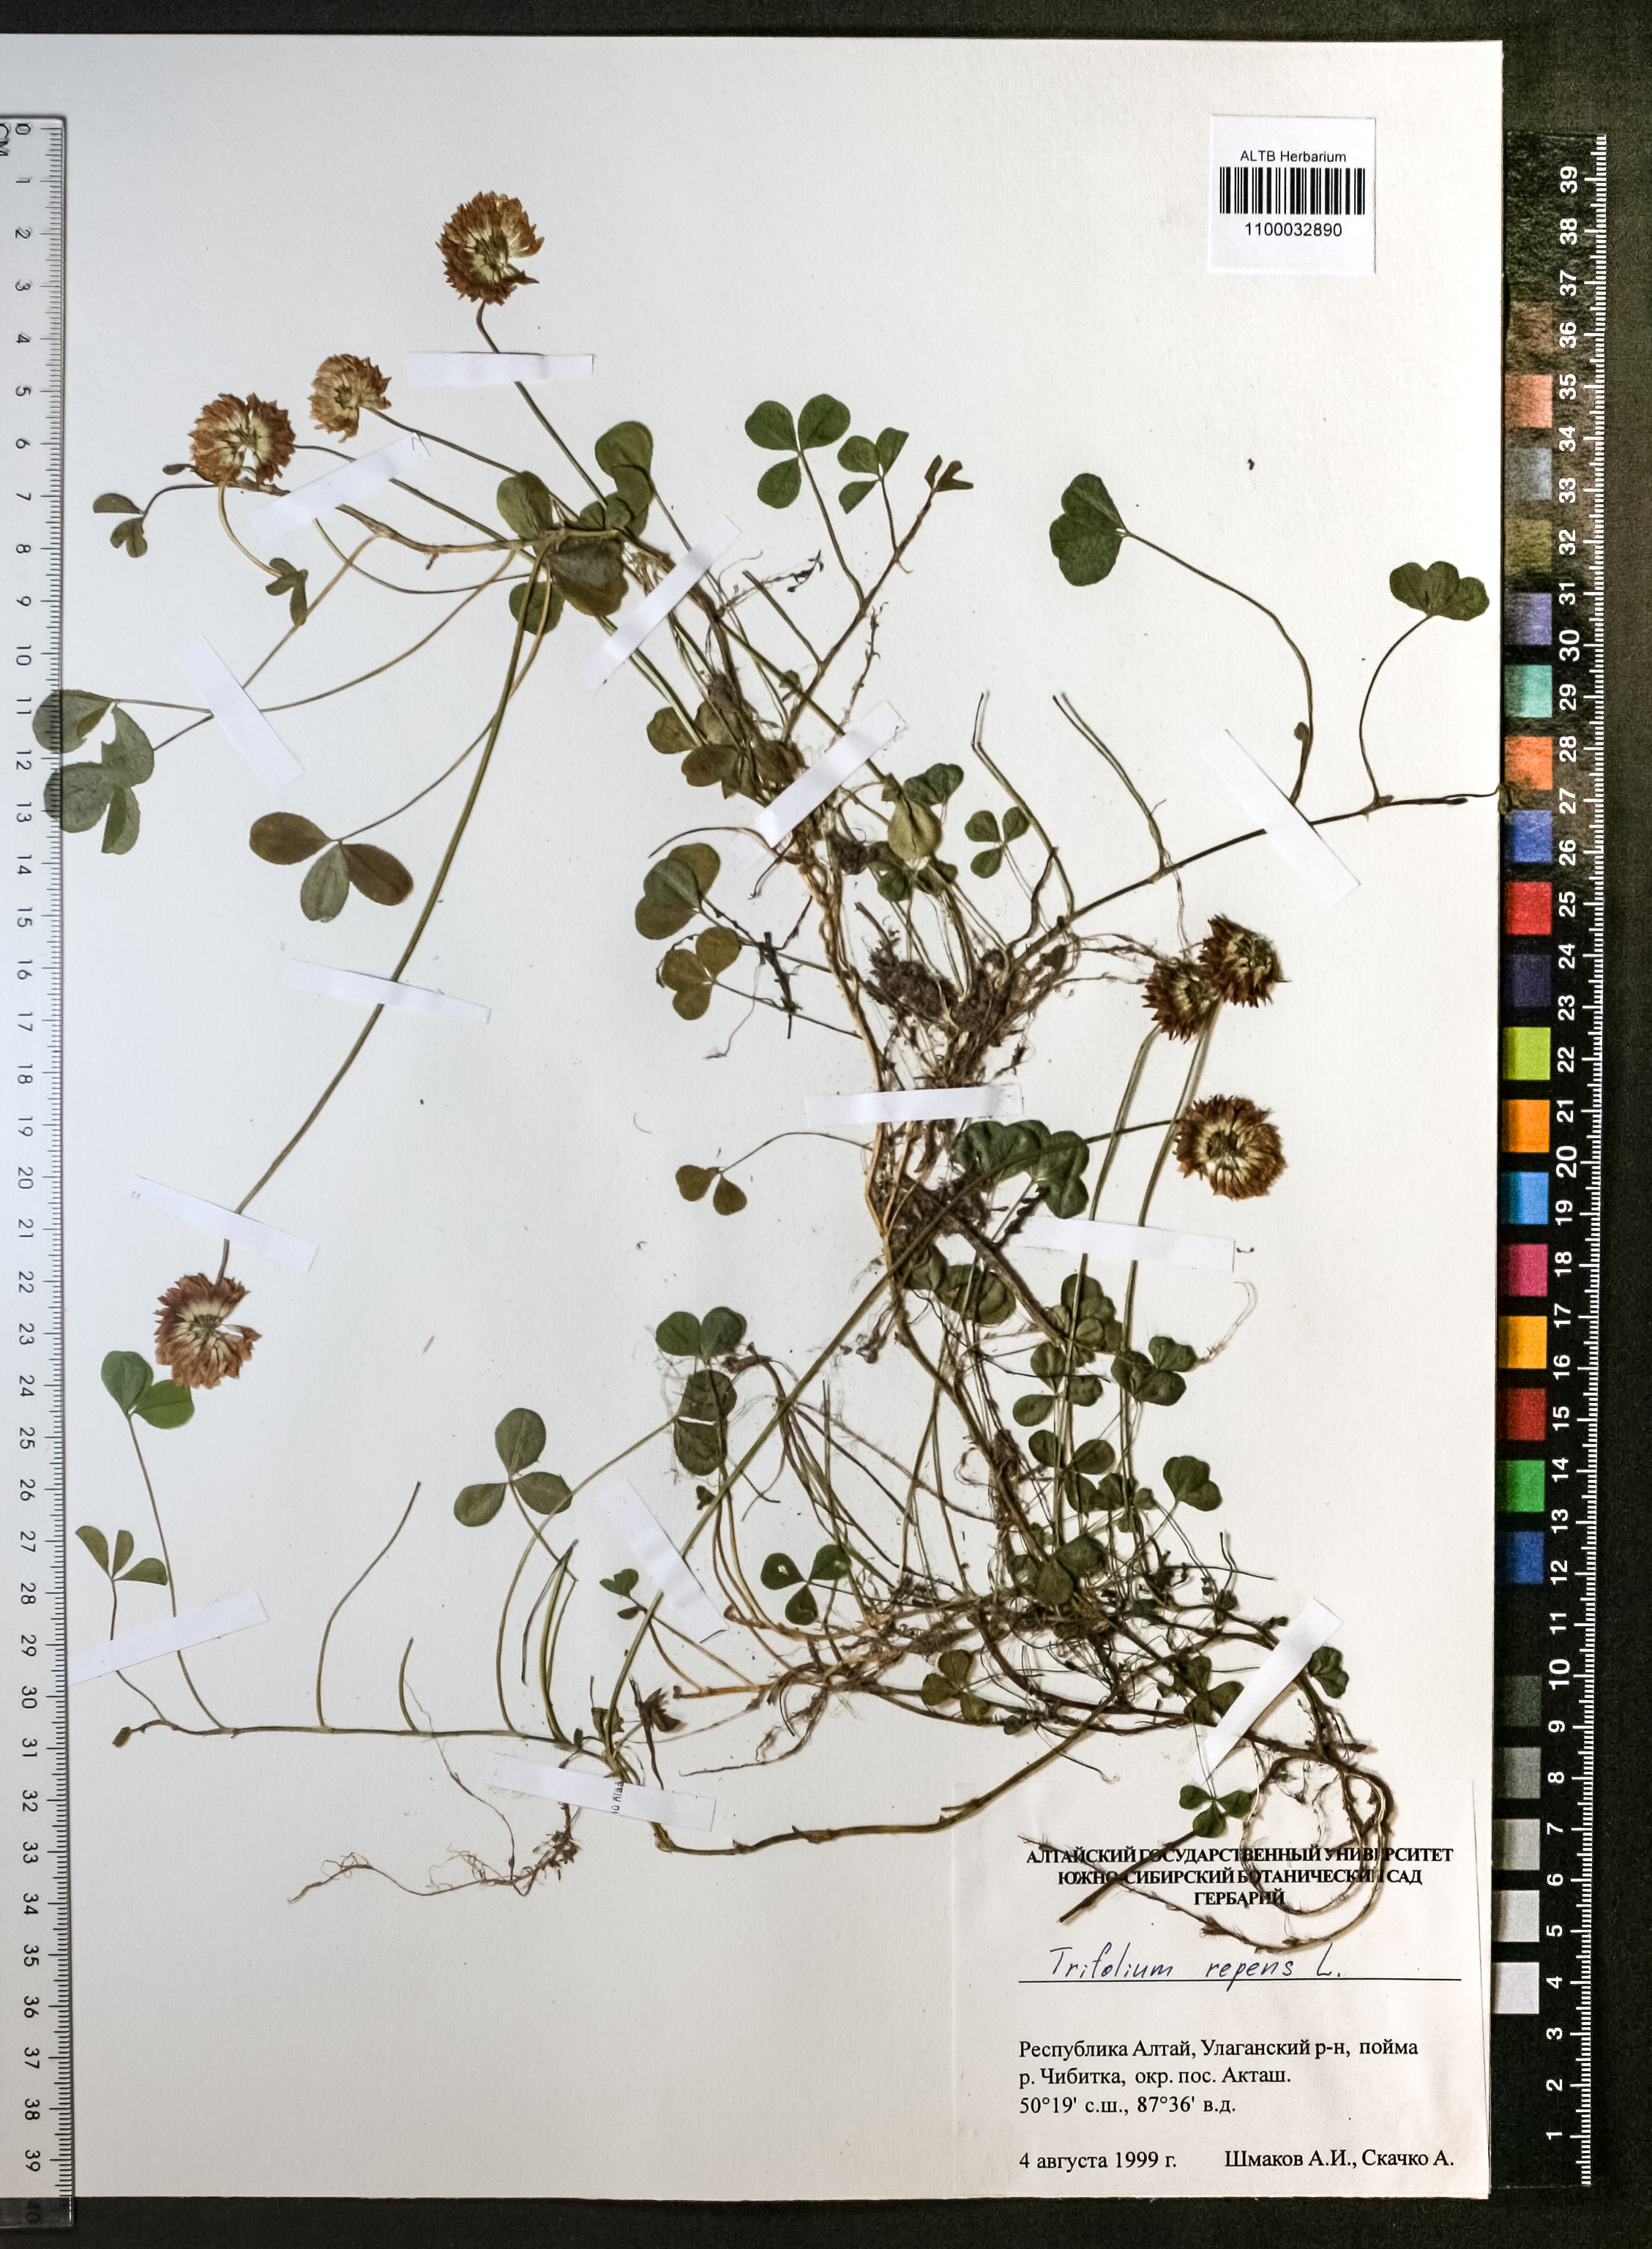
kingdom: Plantae
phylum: Tracheophyta
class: Magnoliopsida
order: Fabales
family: Fabaceae
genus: Trifolium
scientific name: Trifolium repens
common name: White clover
